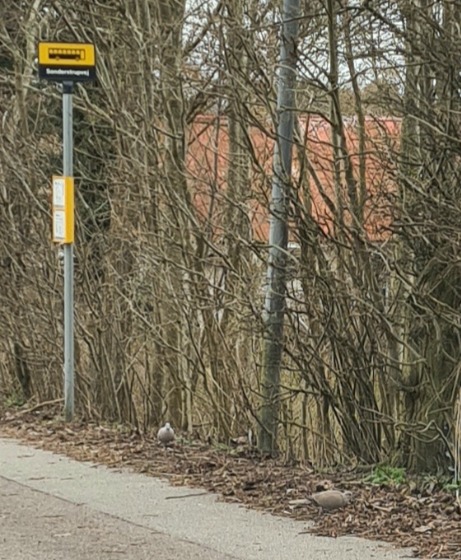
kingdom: Animalia
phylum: Chordata
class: Aves
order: Columbiformes
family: Columbidae
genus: Streptopelia
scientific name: Streptopelia decaocto
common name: Tyrkerdue
